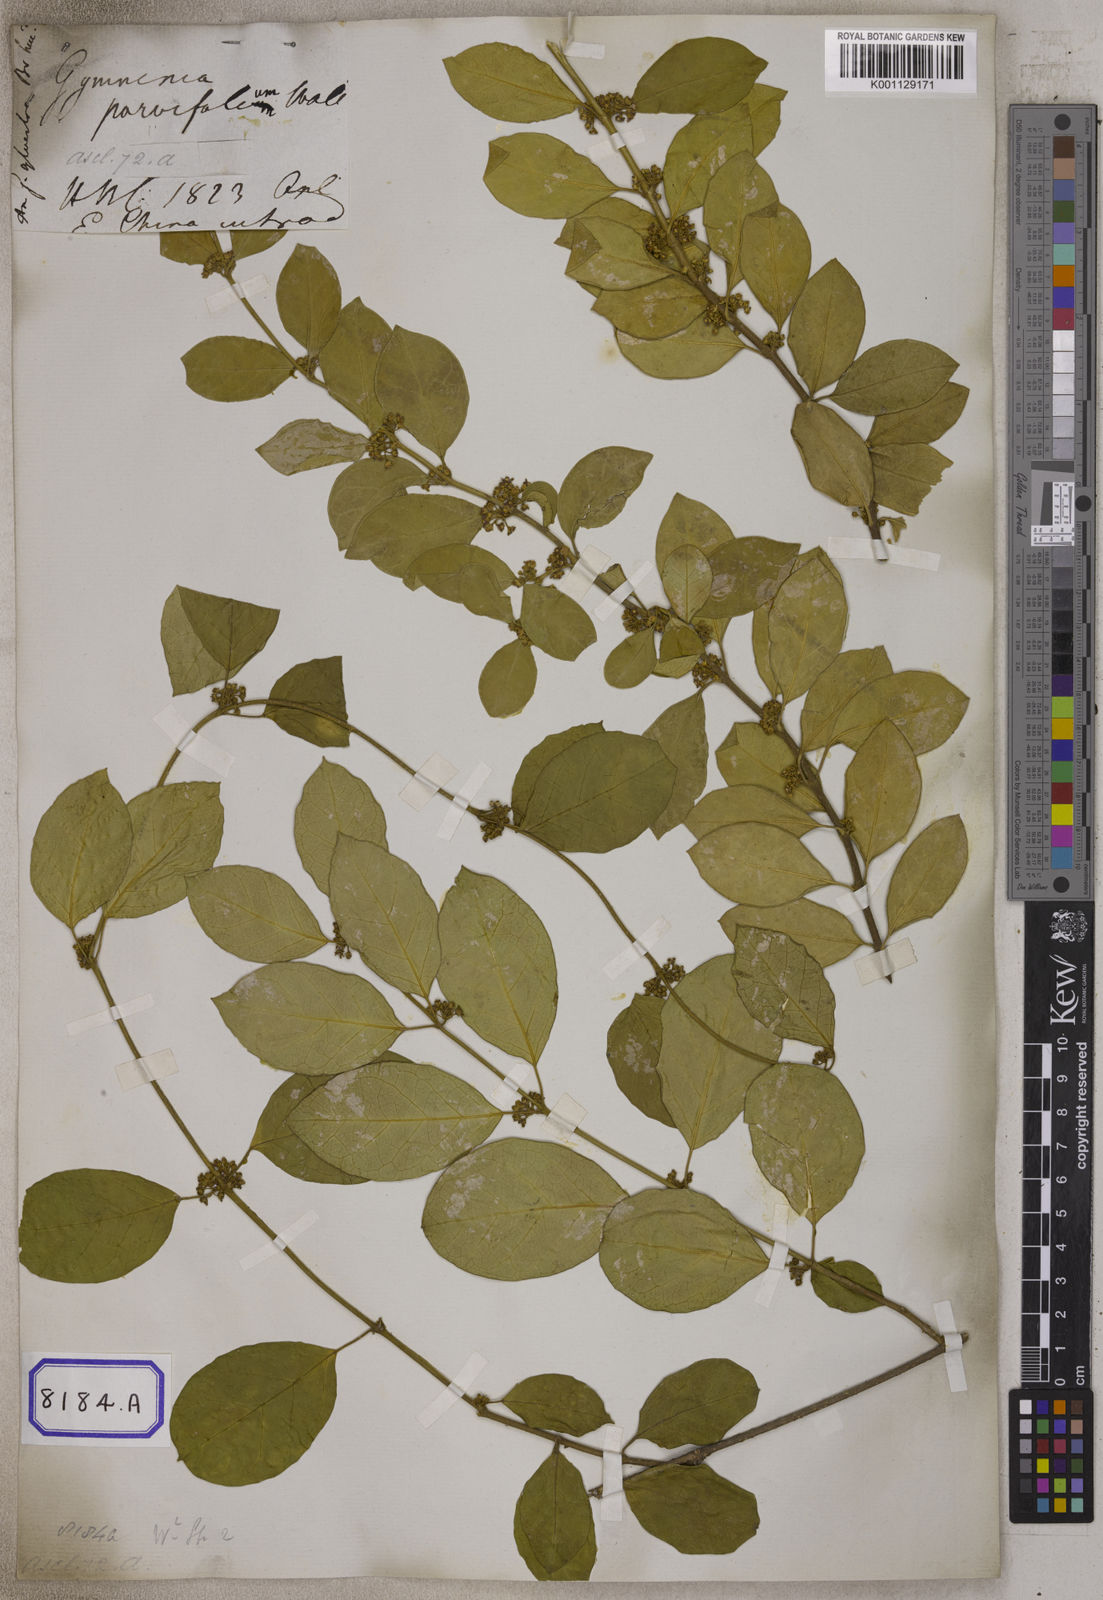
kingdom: Plantae
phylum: Tracheophyta
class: Magnoliopsida
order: Gentianales
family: Apocynaceae
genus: Gymnema
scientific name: Gymnema
